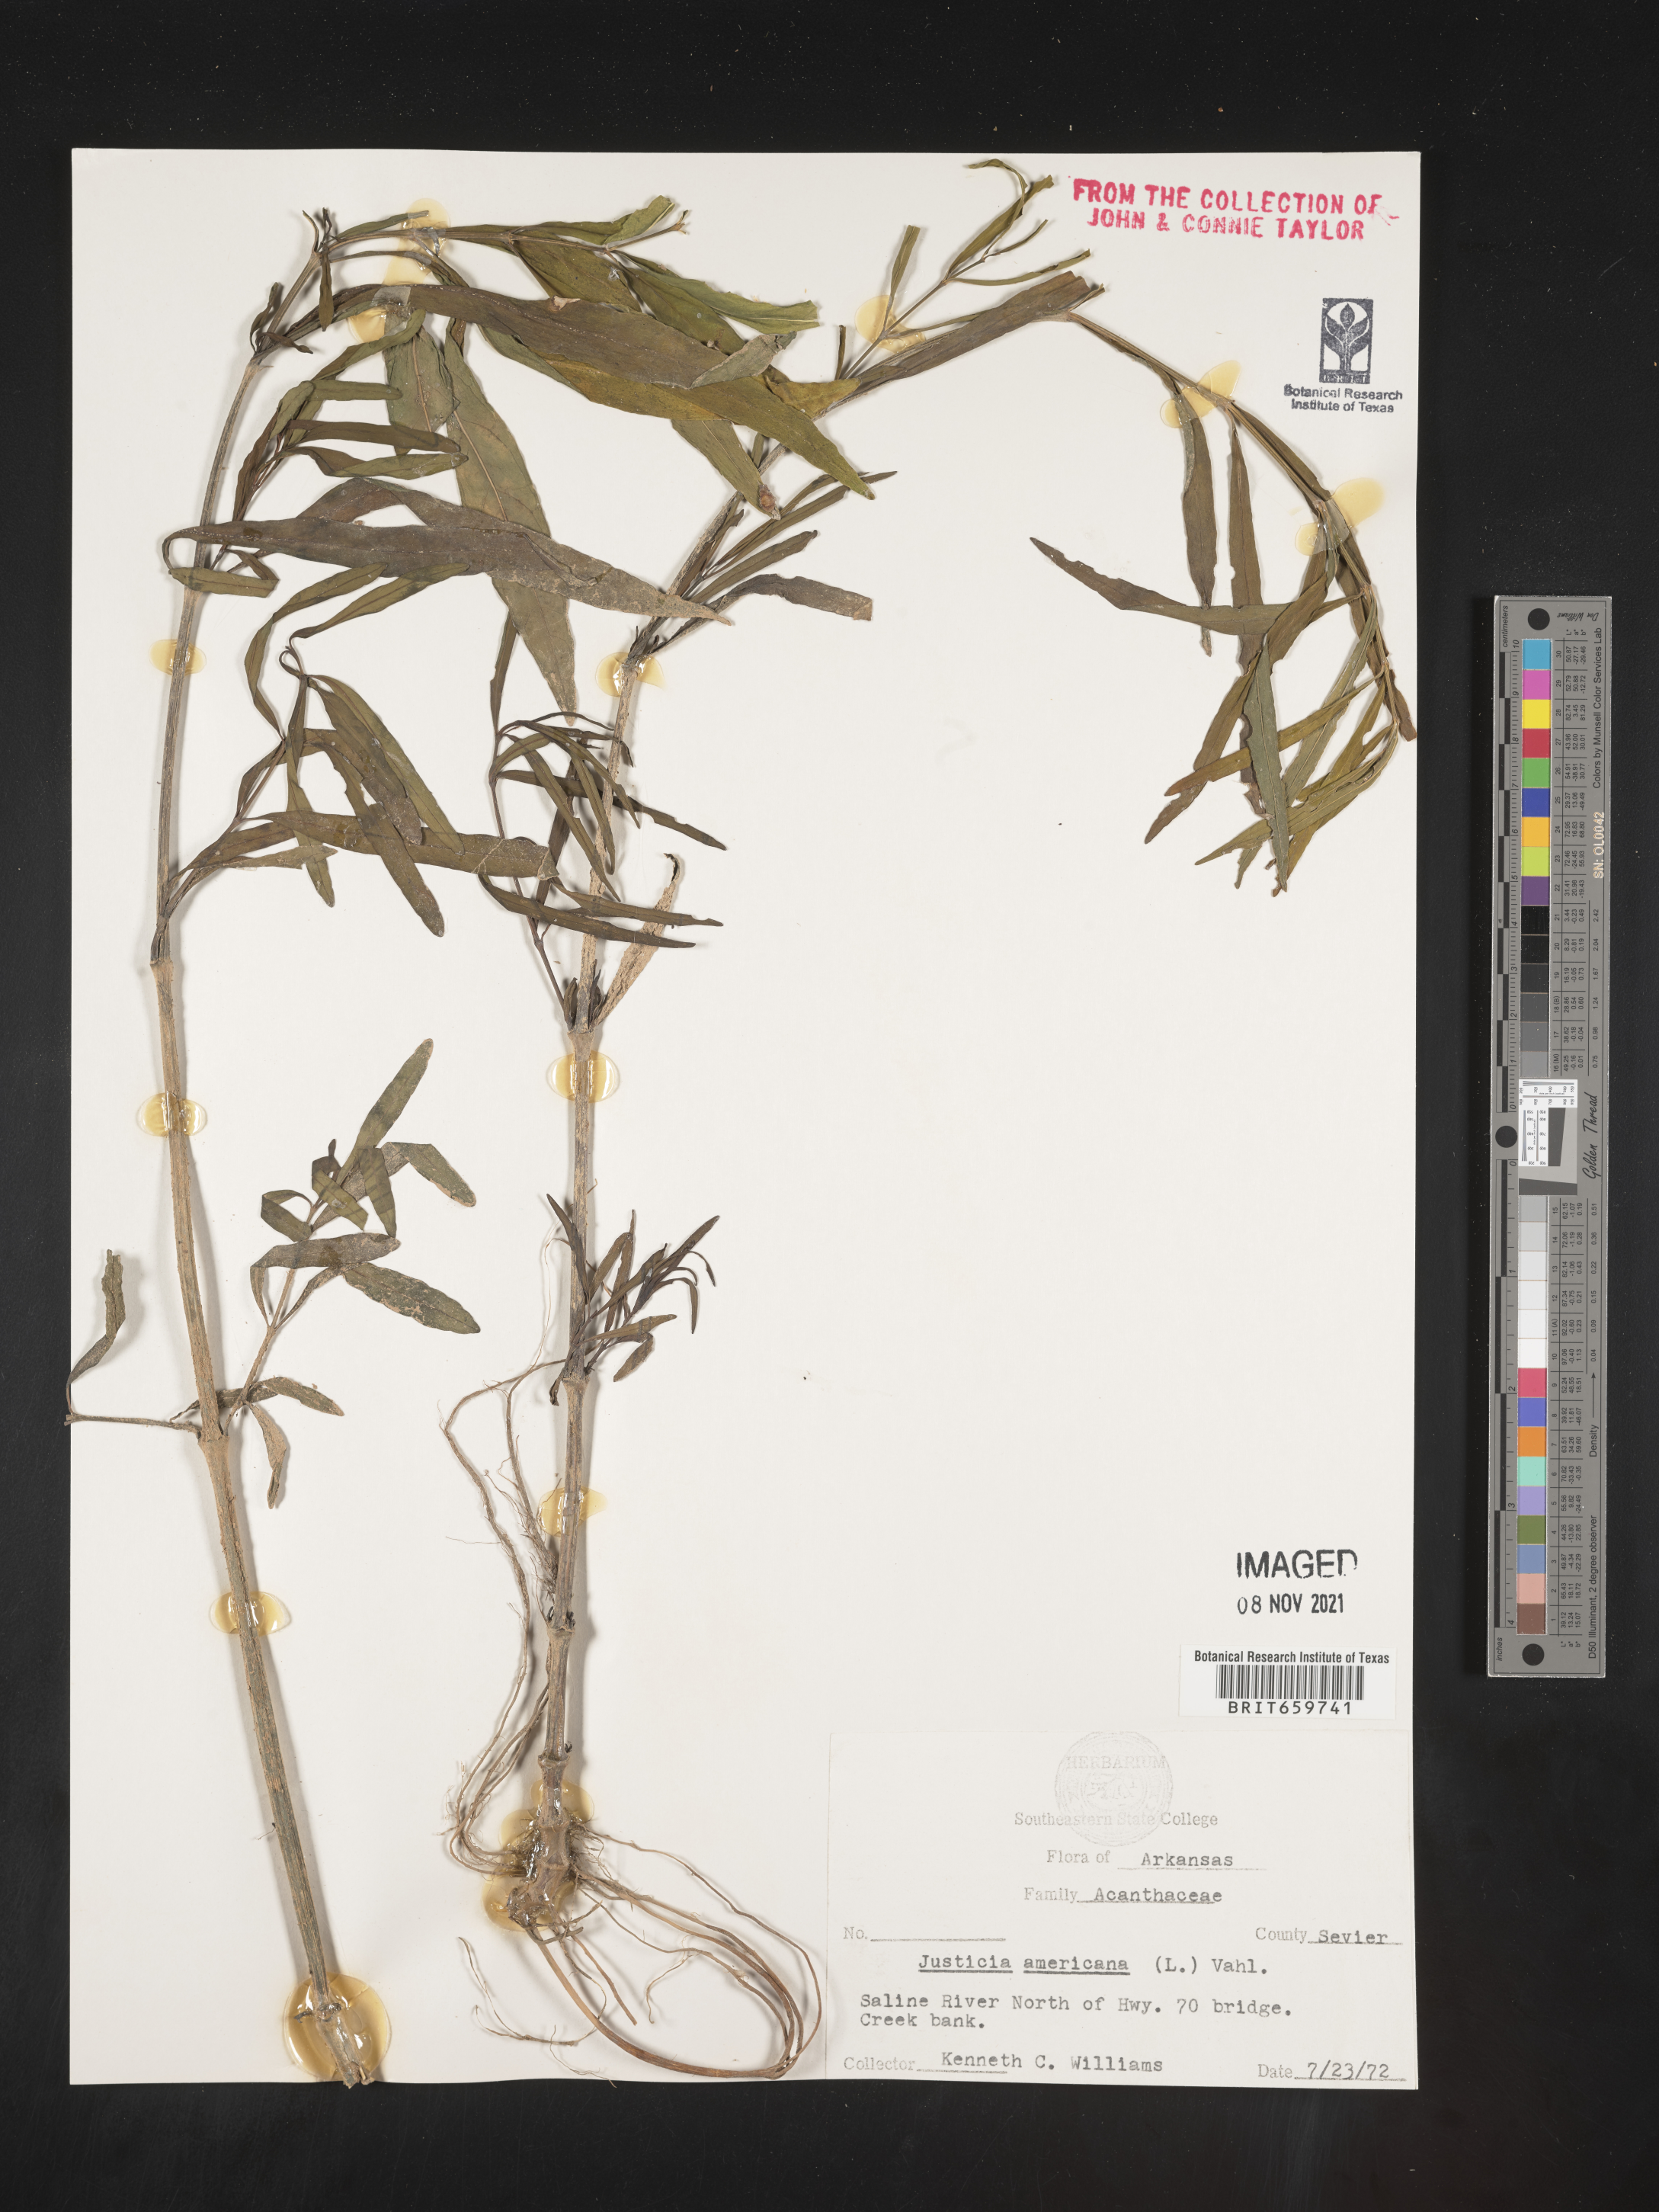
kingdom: Plantae
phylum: Tracheophyta
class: Magnoliopsida
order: Lamiales
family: Acanthaceae
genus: Dianthera
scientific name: Dianthera americana
